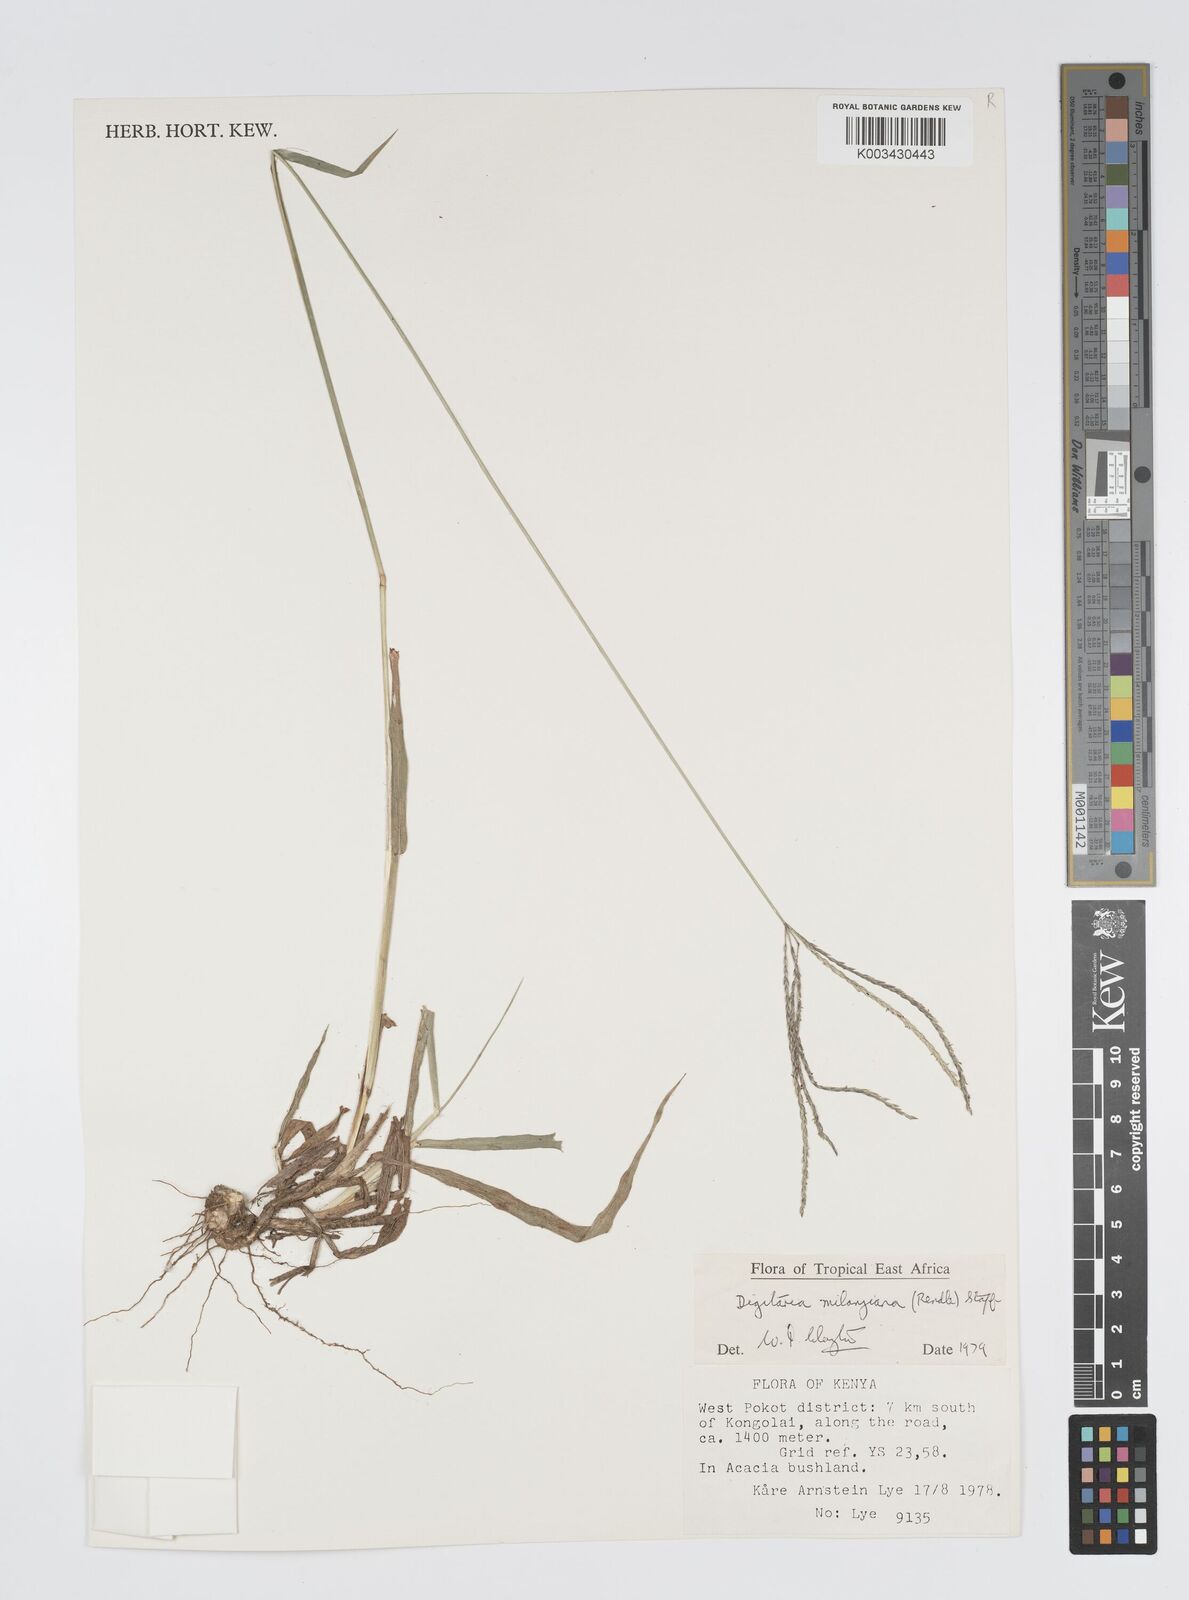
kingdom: Plantae
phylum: Tracheophyta
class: Liliopsida
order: Poales
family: Poaceae
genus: Digitaria
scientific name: Digitaria milanjiana
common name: Madagascar crabgrass
